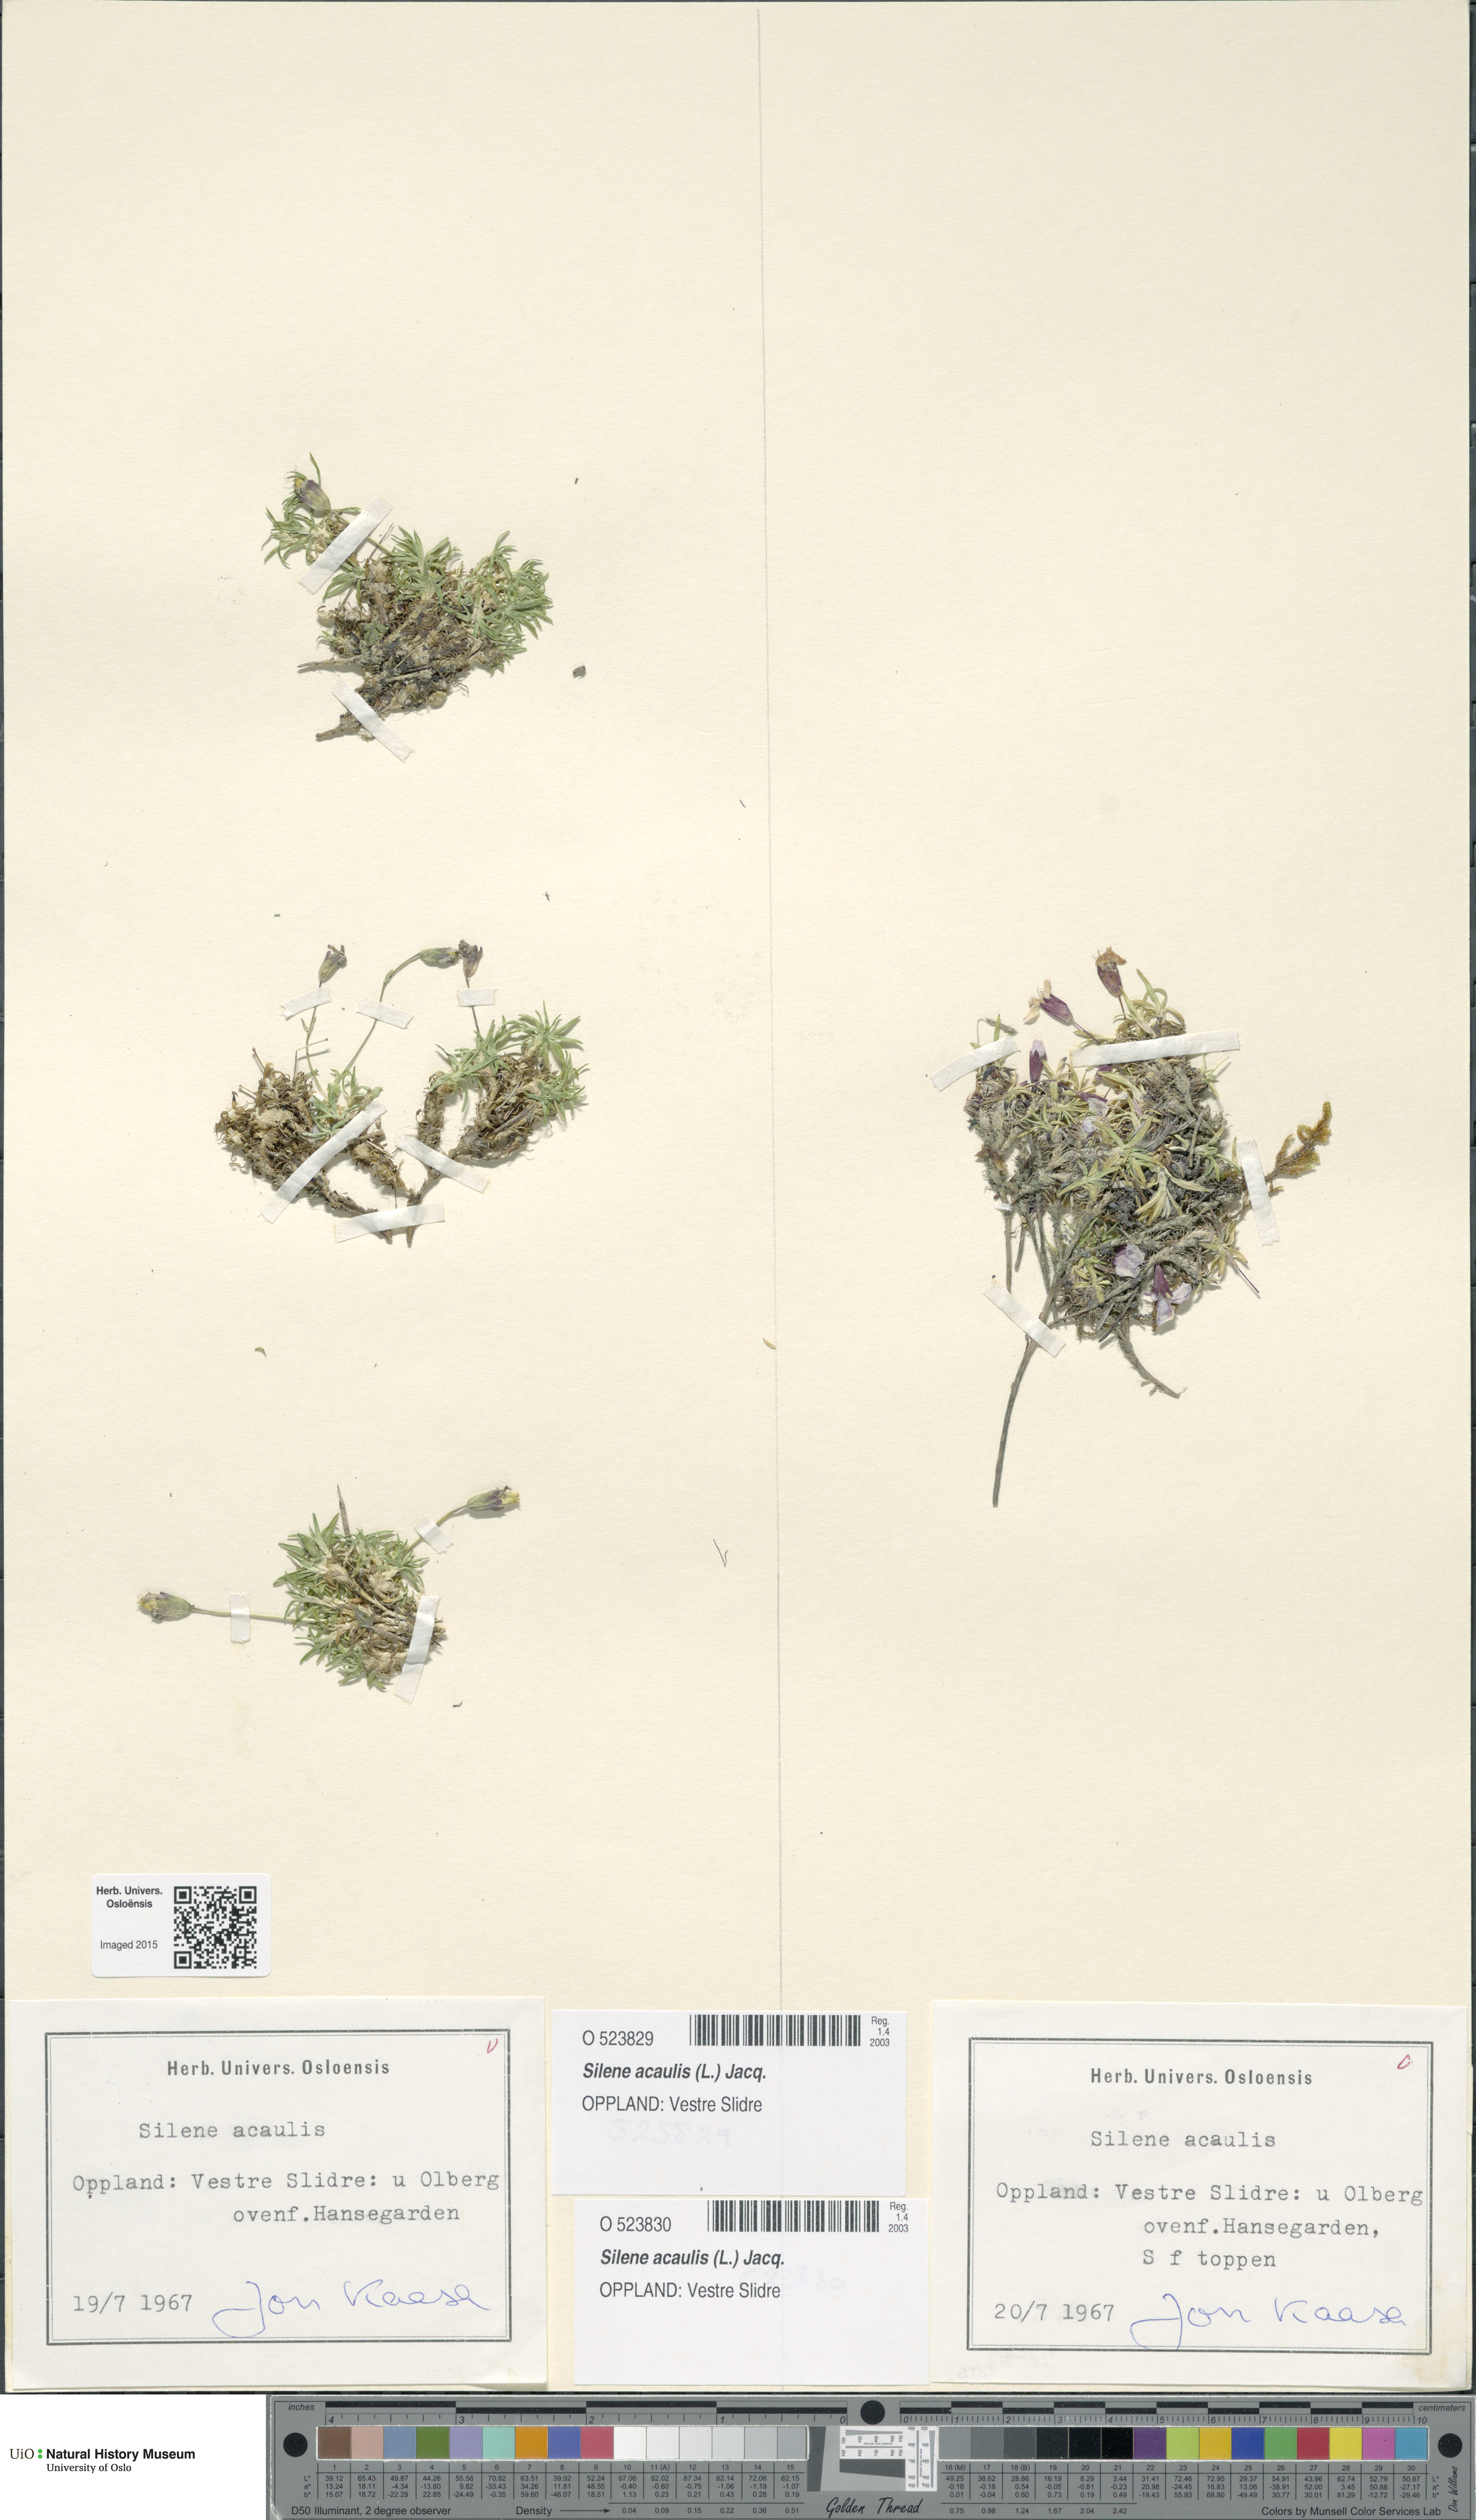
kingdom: Plantae
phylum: Tracheophyta
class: Magnoliopsida
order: Caryophyllales
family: Caryophyllaceae
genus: Silene
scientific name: Silene acaulis
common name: Moss campion
